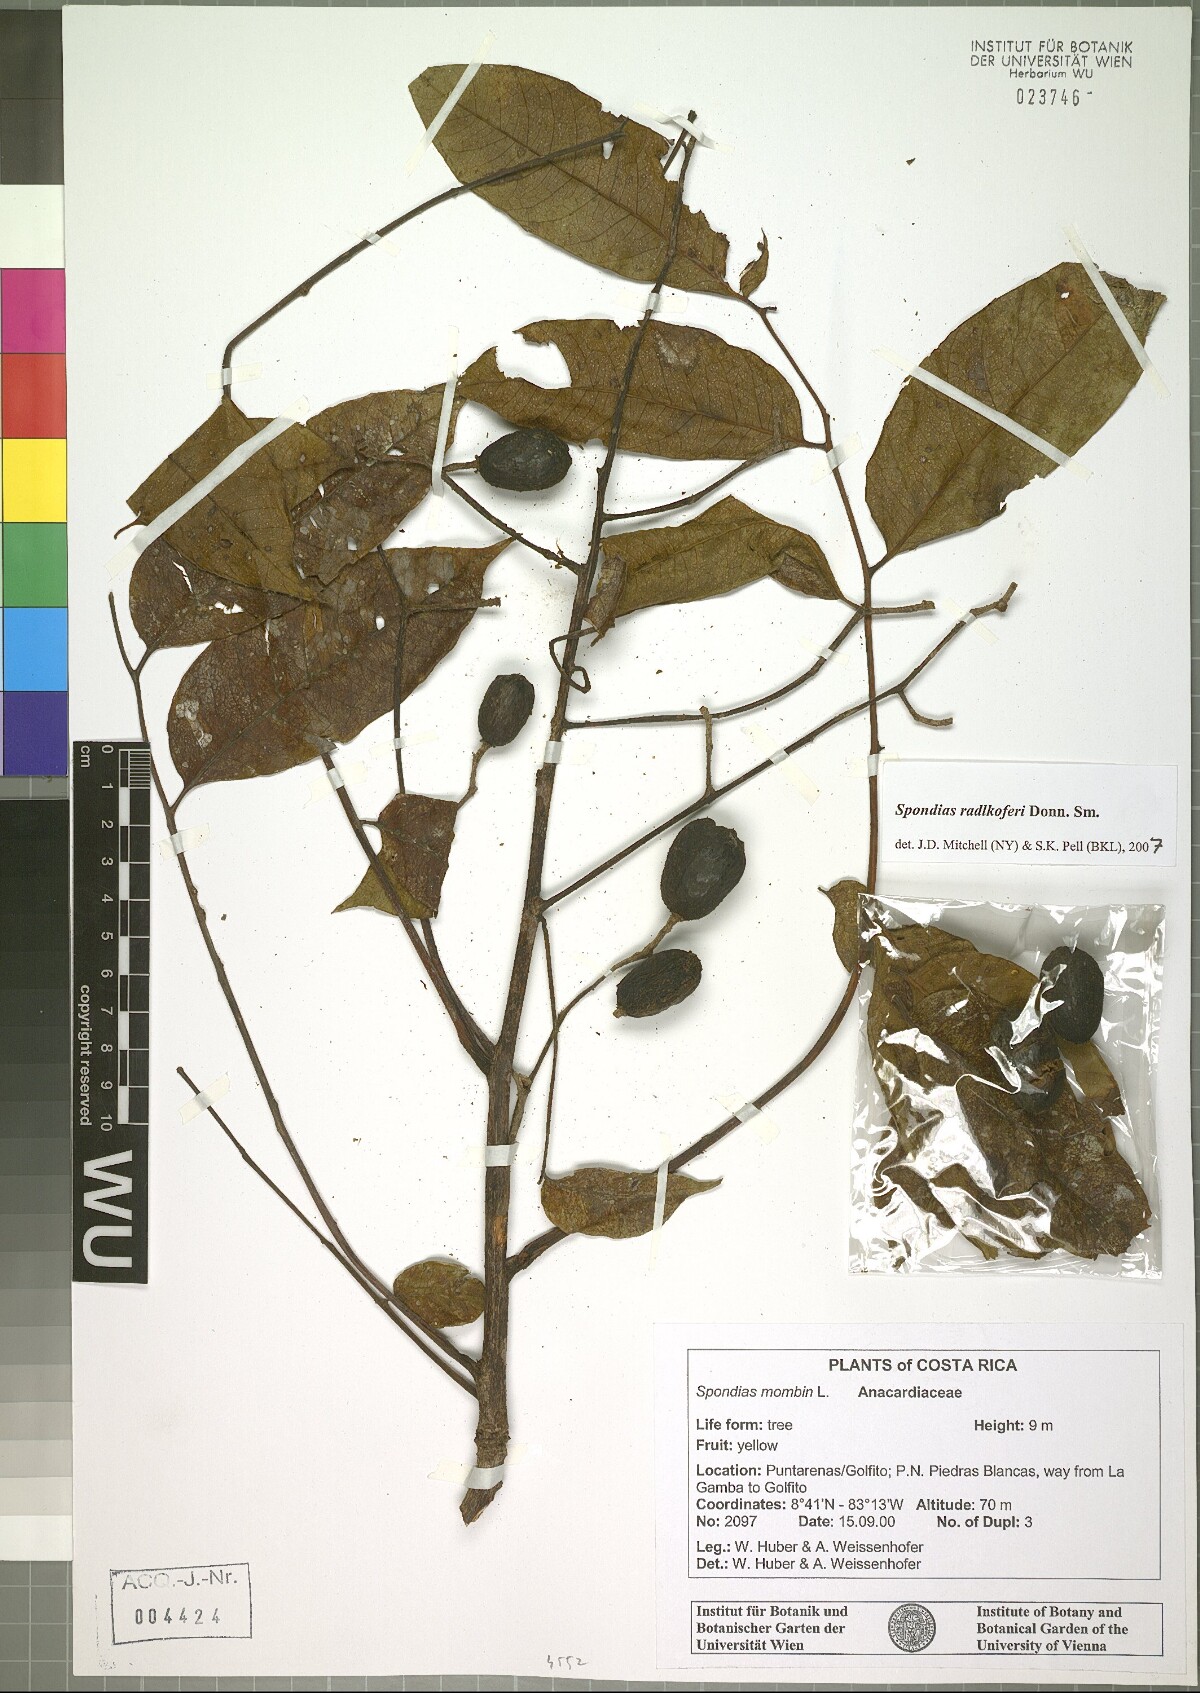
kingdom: Plantae
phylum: Tracheophyta
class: Magnoliopsida
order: Sapindales
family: Anacardiaceae
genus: Spondias
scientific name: Spondias radlkoferi
